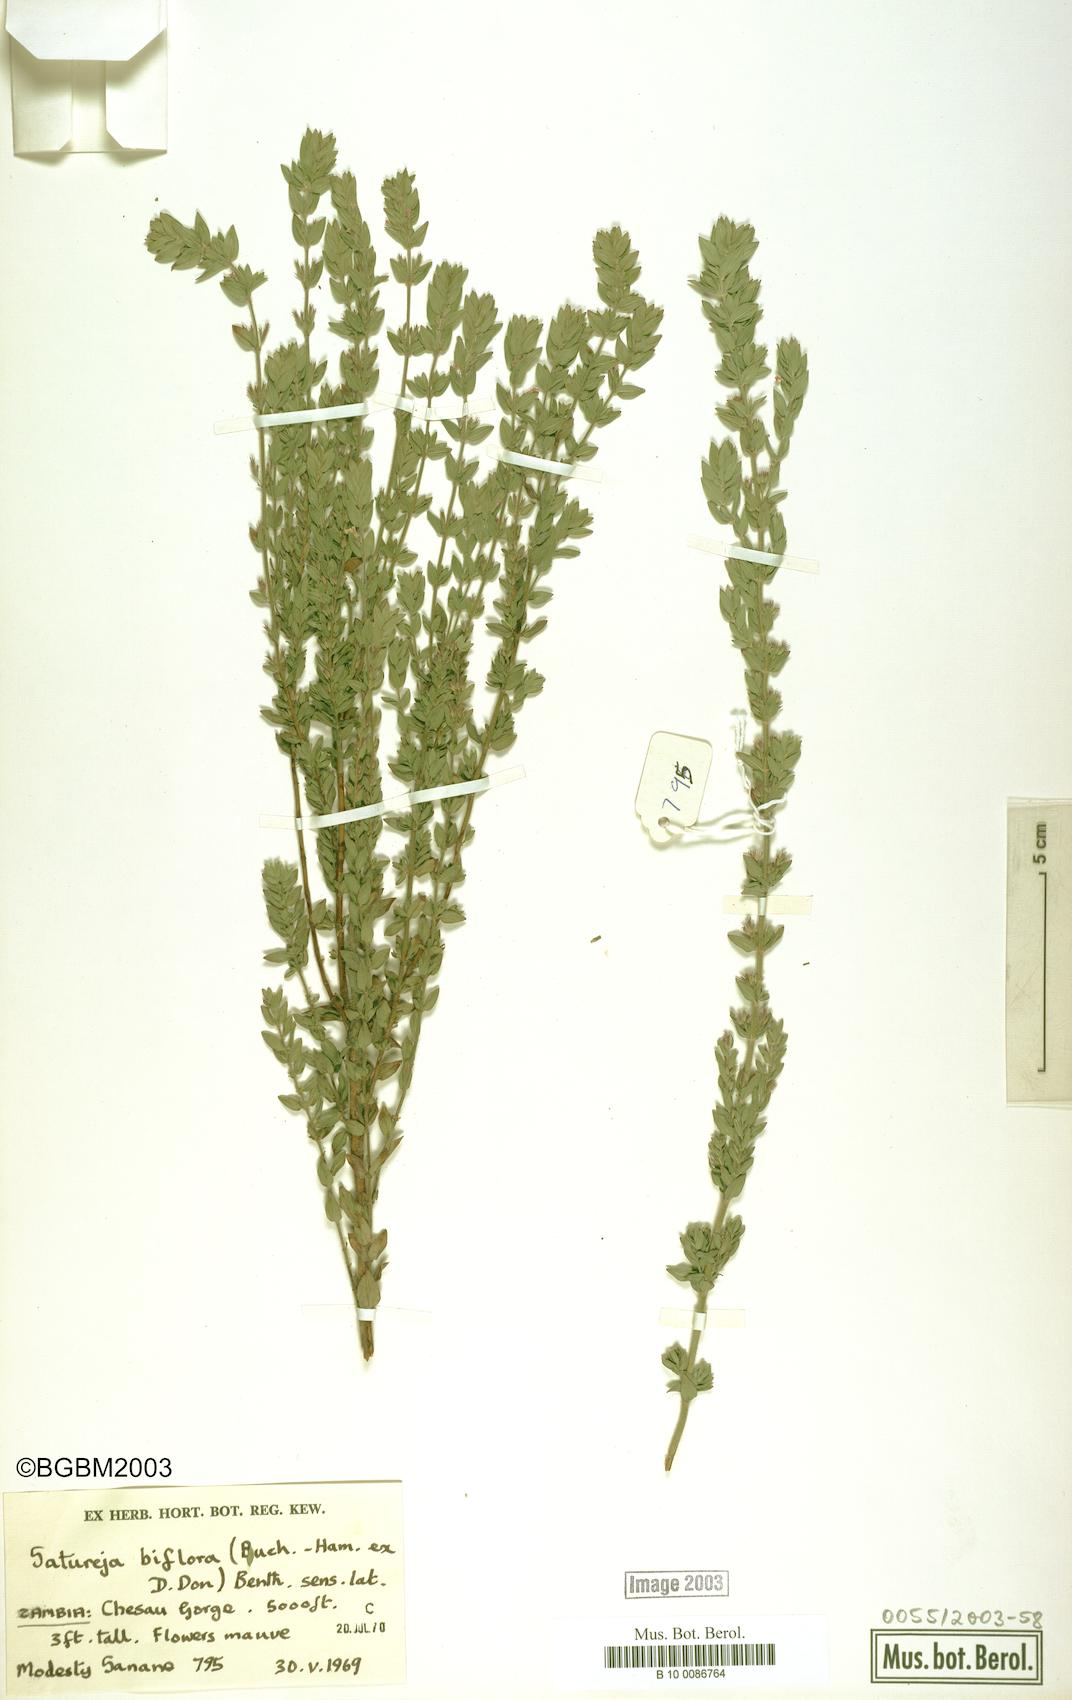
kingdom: Plantae
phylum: Tracheophyta
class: Magnoliopsida
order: Lamiales
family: Lamiaceae
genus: Micromeria
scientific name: Micromeria biflora
